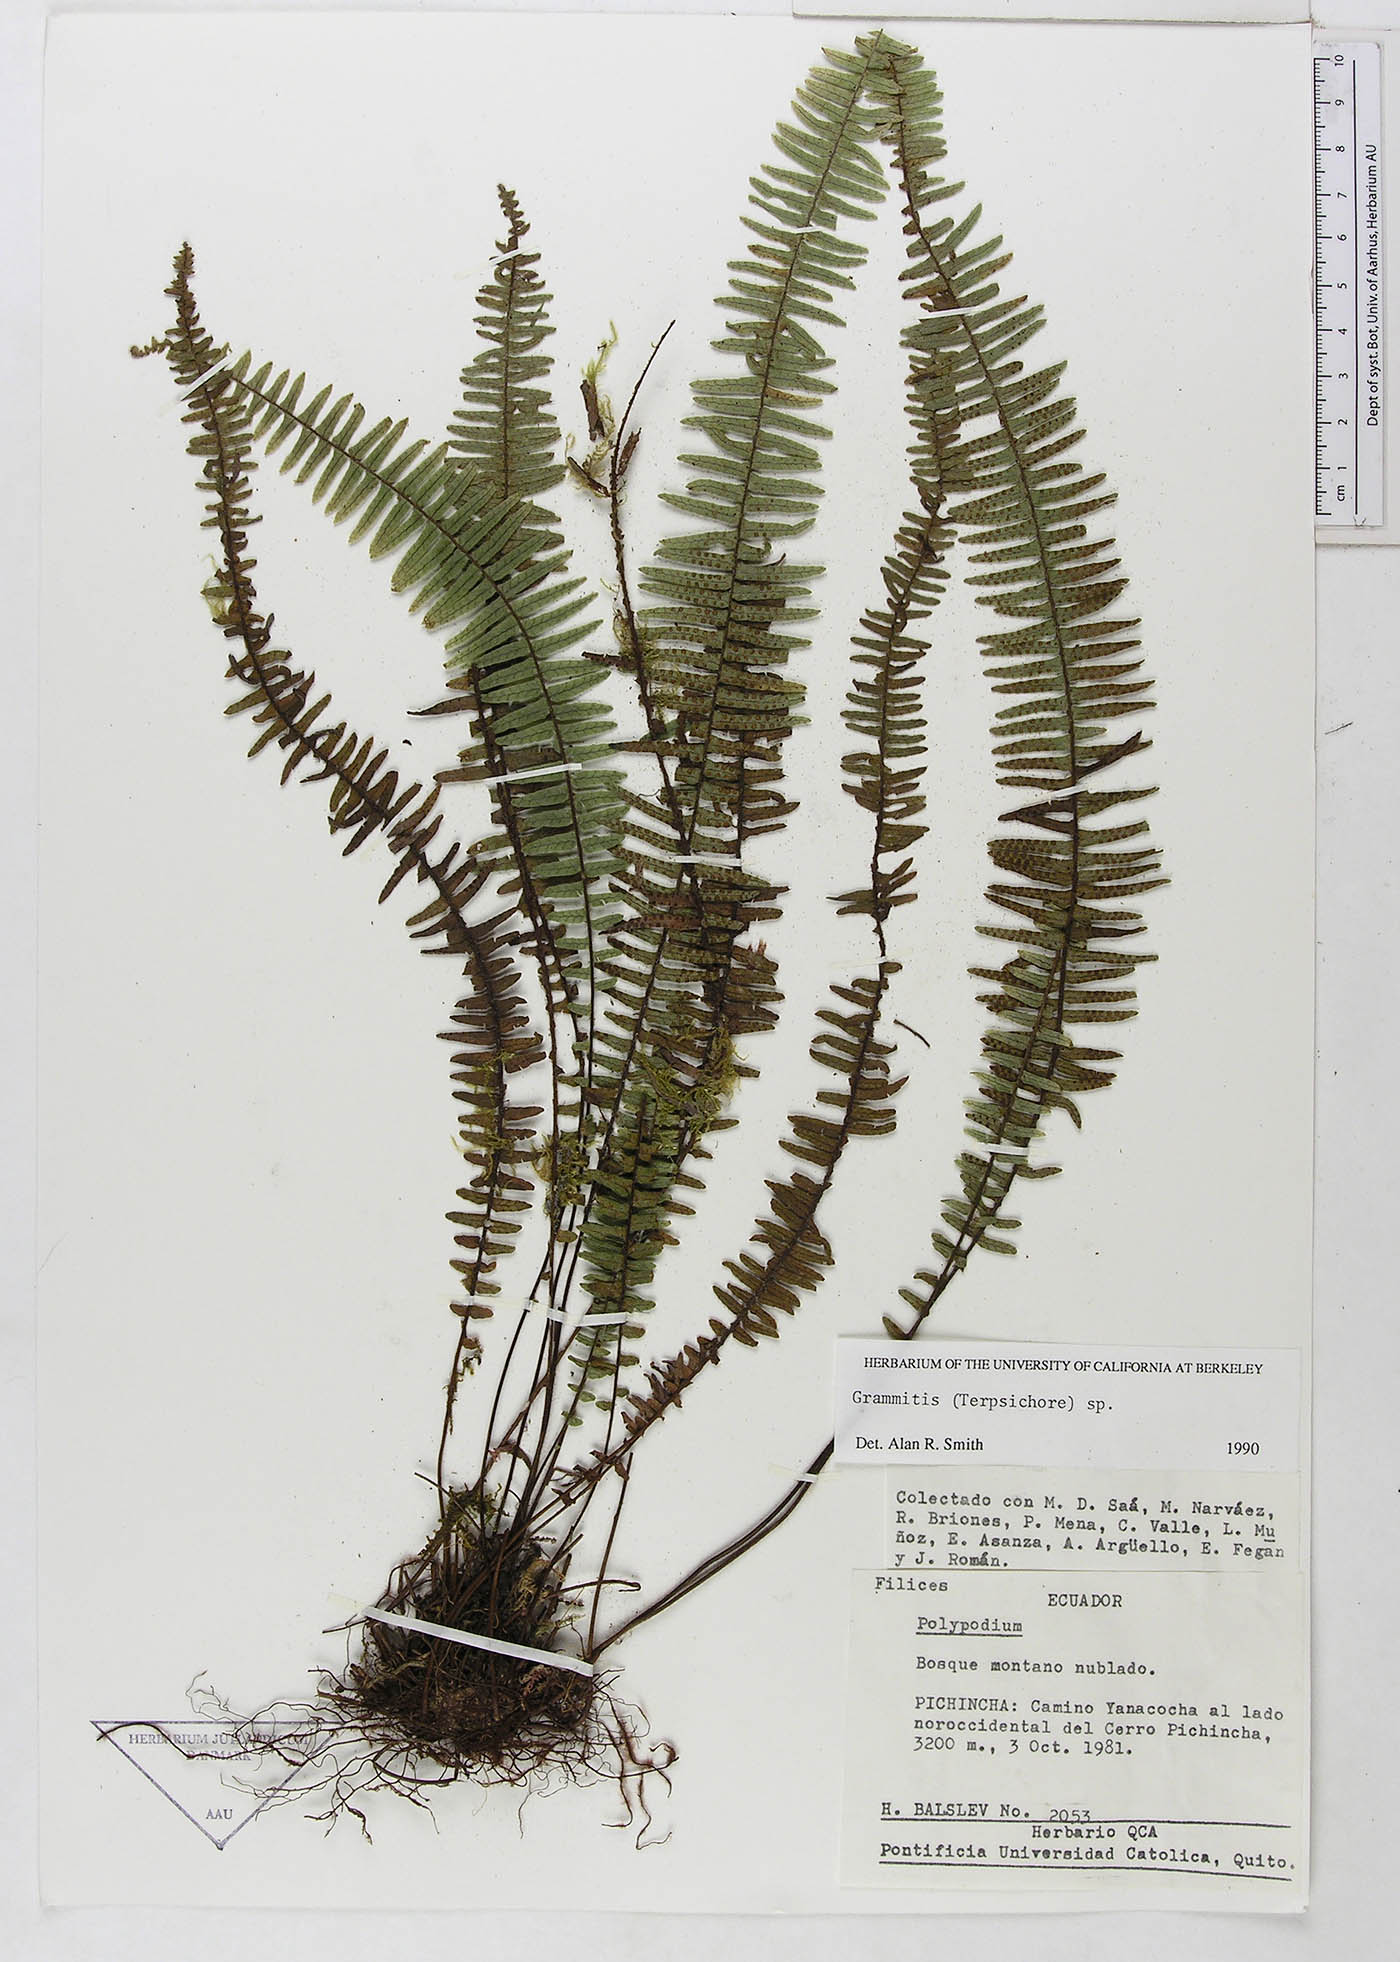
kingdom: Plantae
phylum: Tracheophyta
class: Polypodiopsida
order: Polypodiales
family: Polypodiaceae
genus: Mycopteris
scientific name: Mycopteris leucosticta
